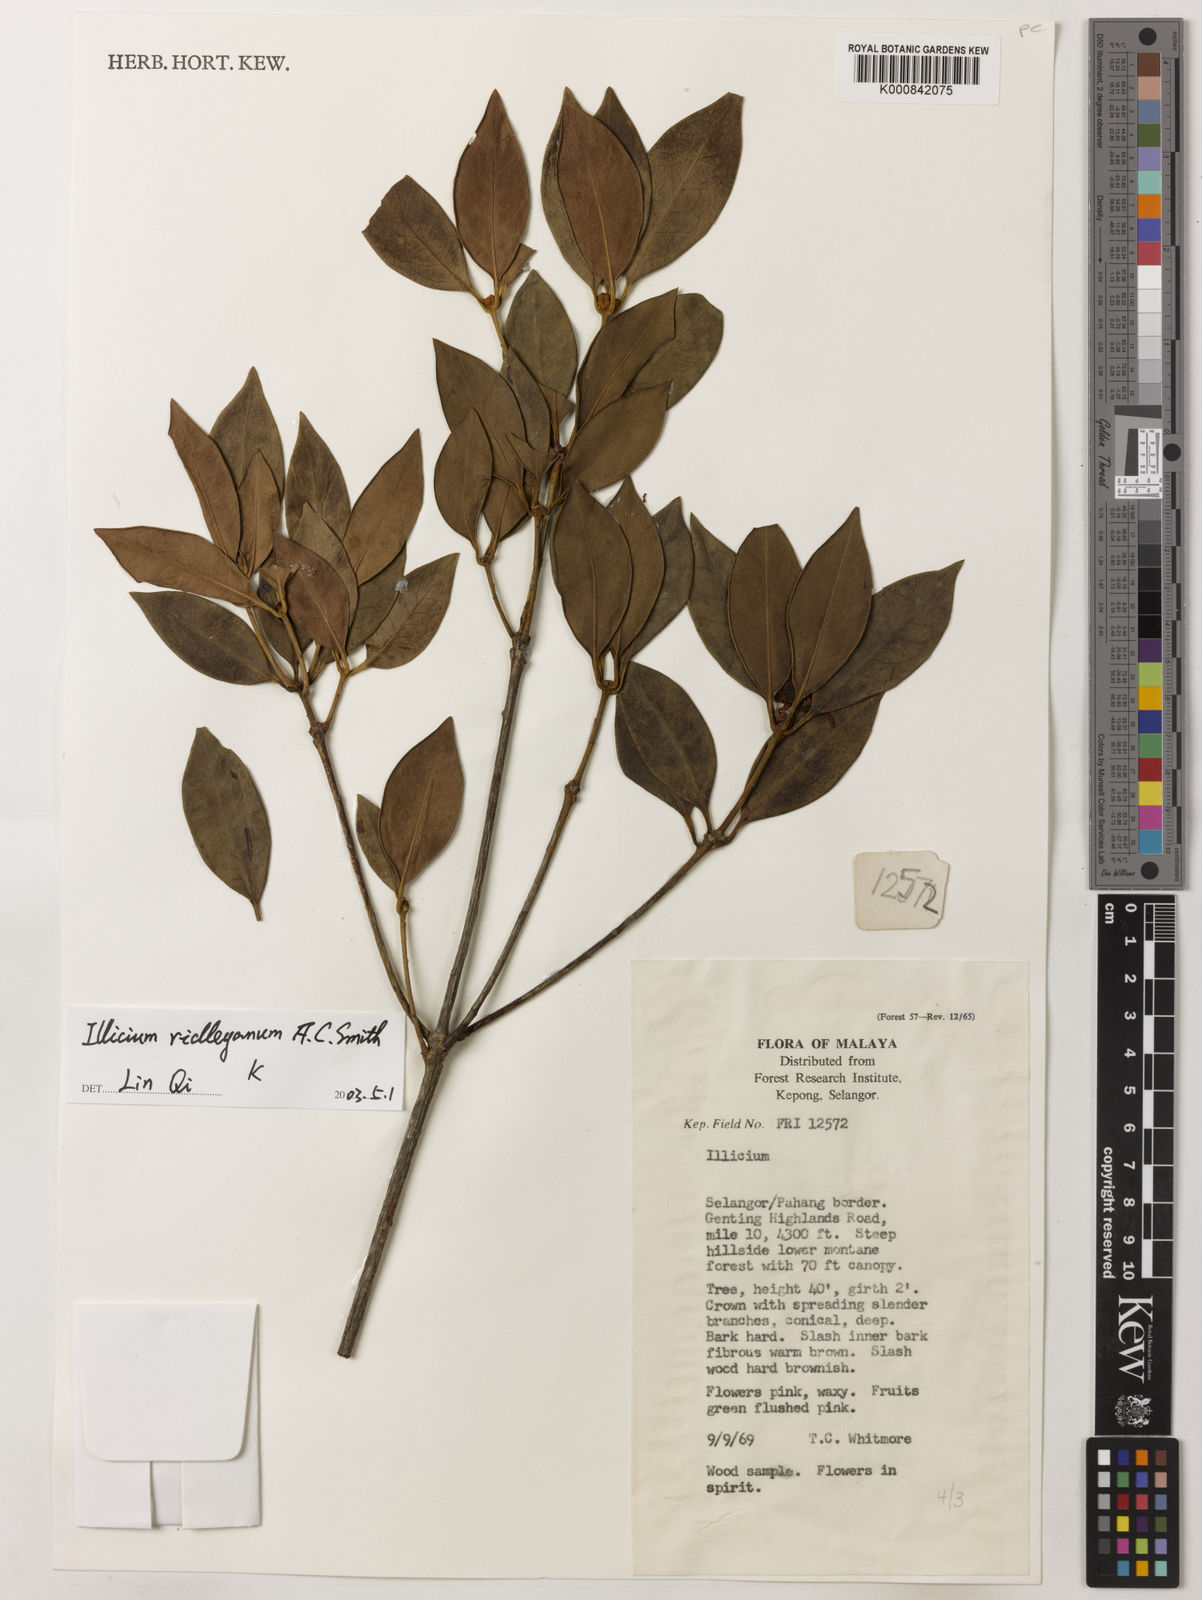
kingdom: Plantae
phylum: Tracheophyta
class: Magnoliopsida
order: Austrobaileyales
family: Schisandraceae
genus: Illicium
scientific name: Illicium ridleyanum
